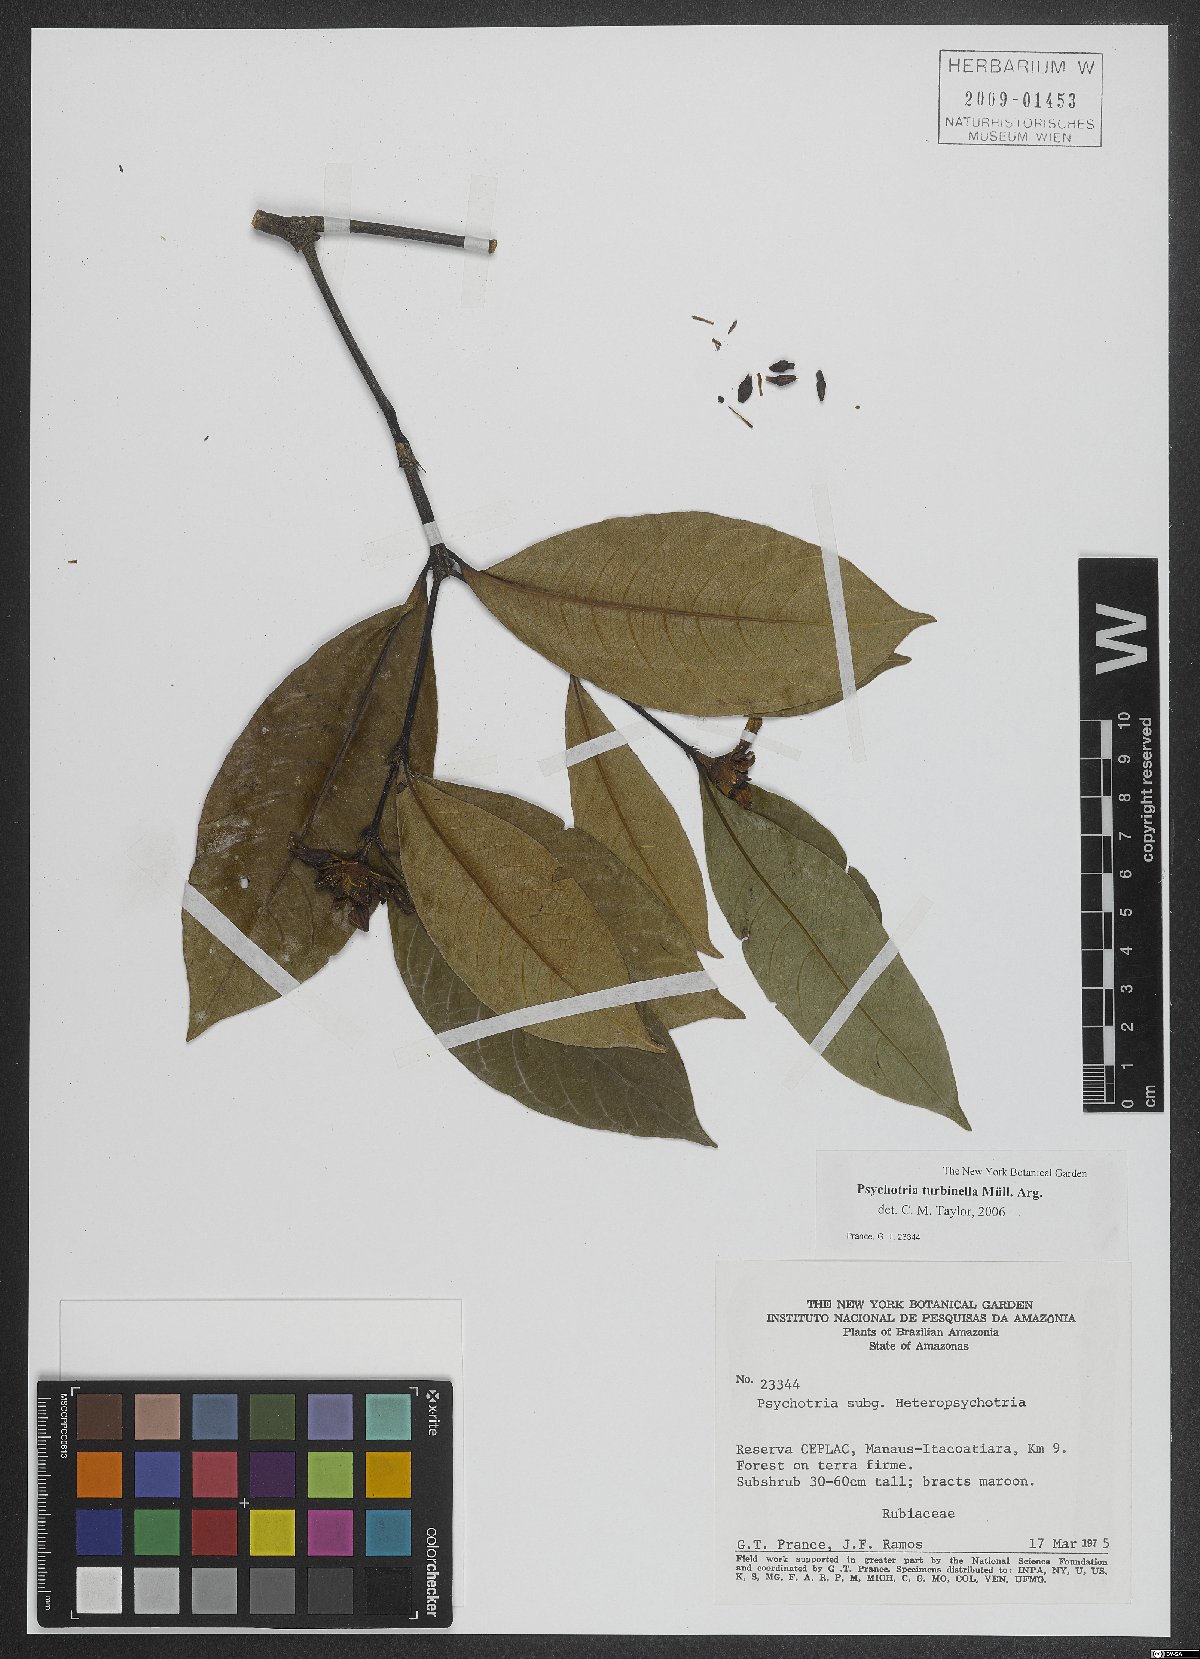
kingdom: Plantae
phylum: Tracheophyta
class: Magnoliopsida
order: Gentianales
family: Rubiaceae
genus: Palicourea
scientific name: Palicourea turbinella
